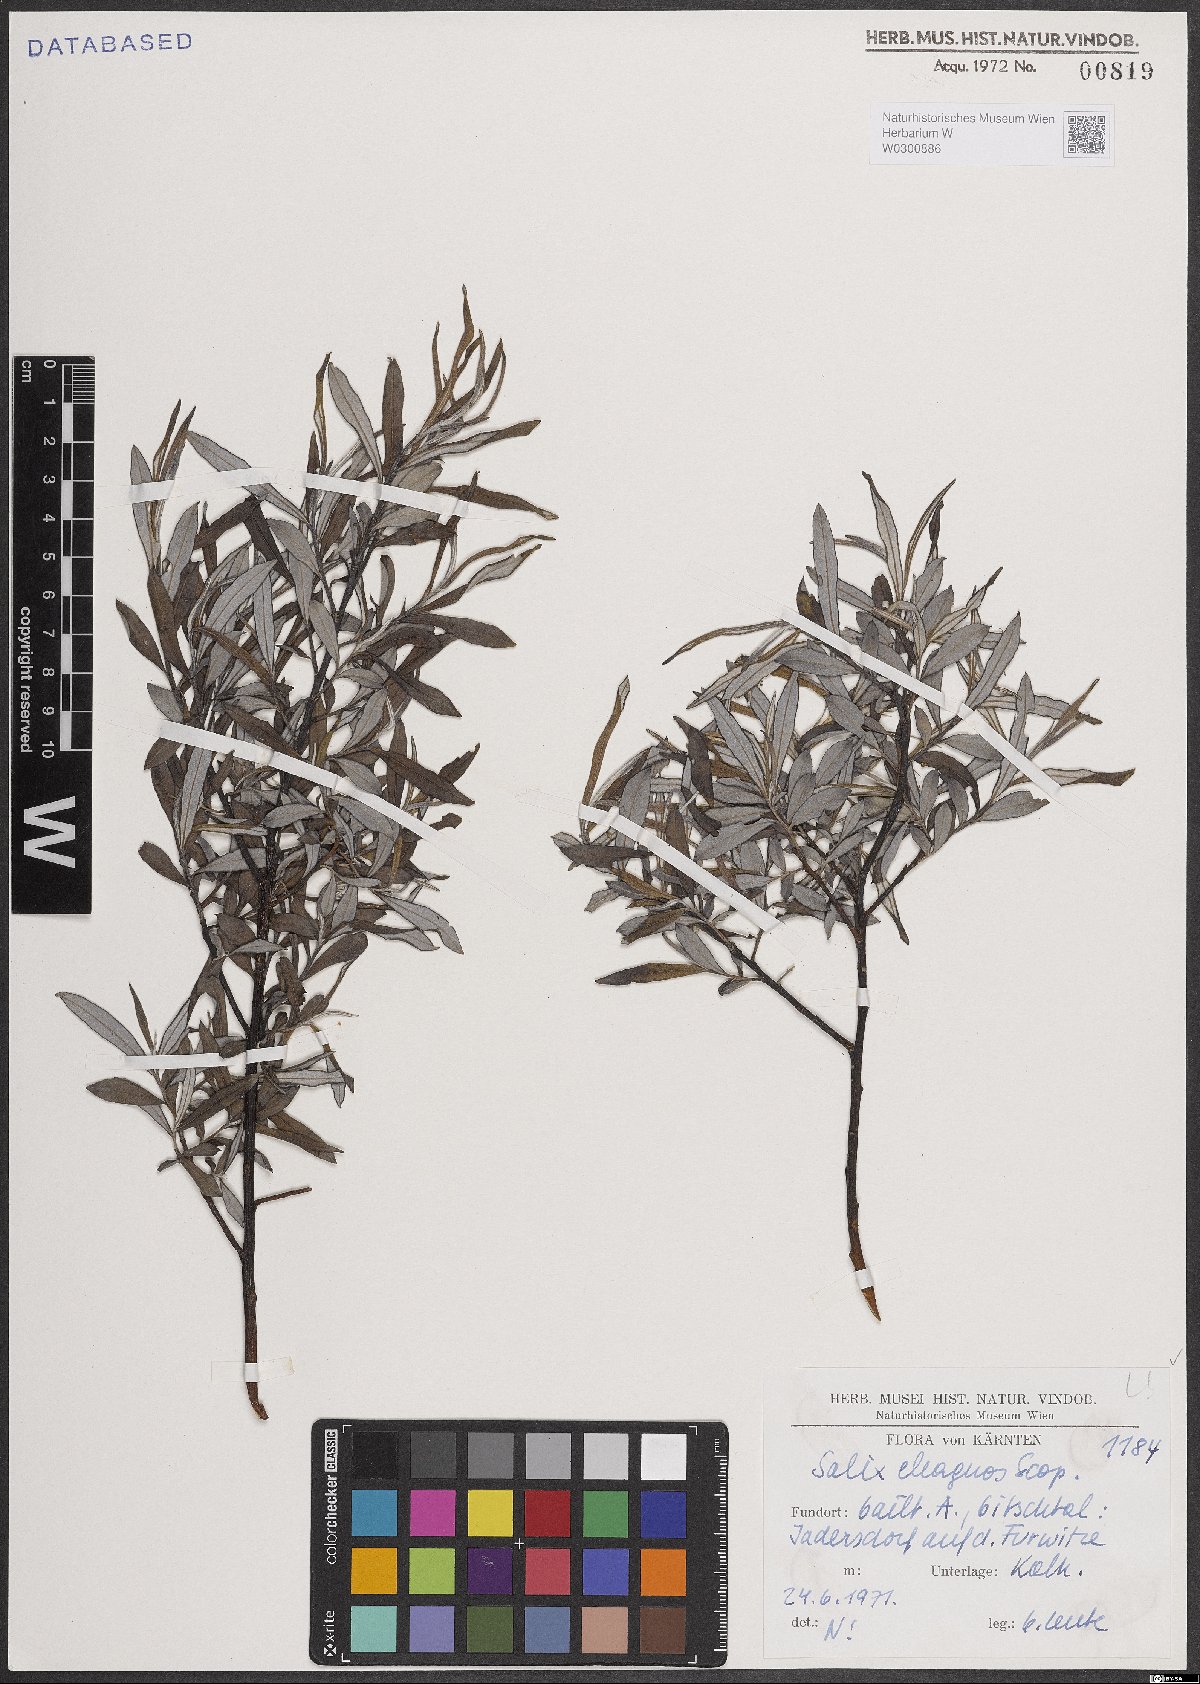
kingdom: Plantae
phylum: Tracheophyta
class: Magnoliopsida
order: Malpighiales
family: Salicaceae
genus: Salix
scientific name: Salix eleagnos
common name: Elaeagnus willow
